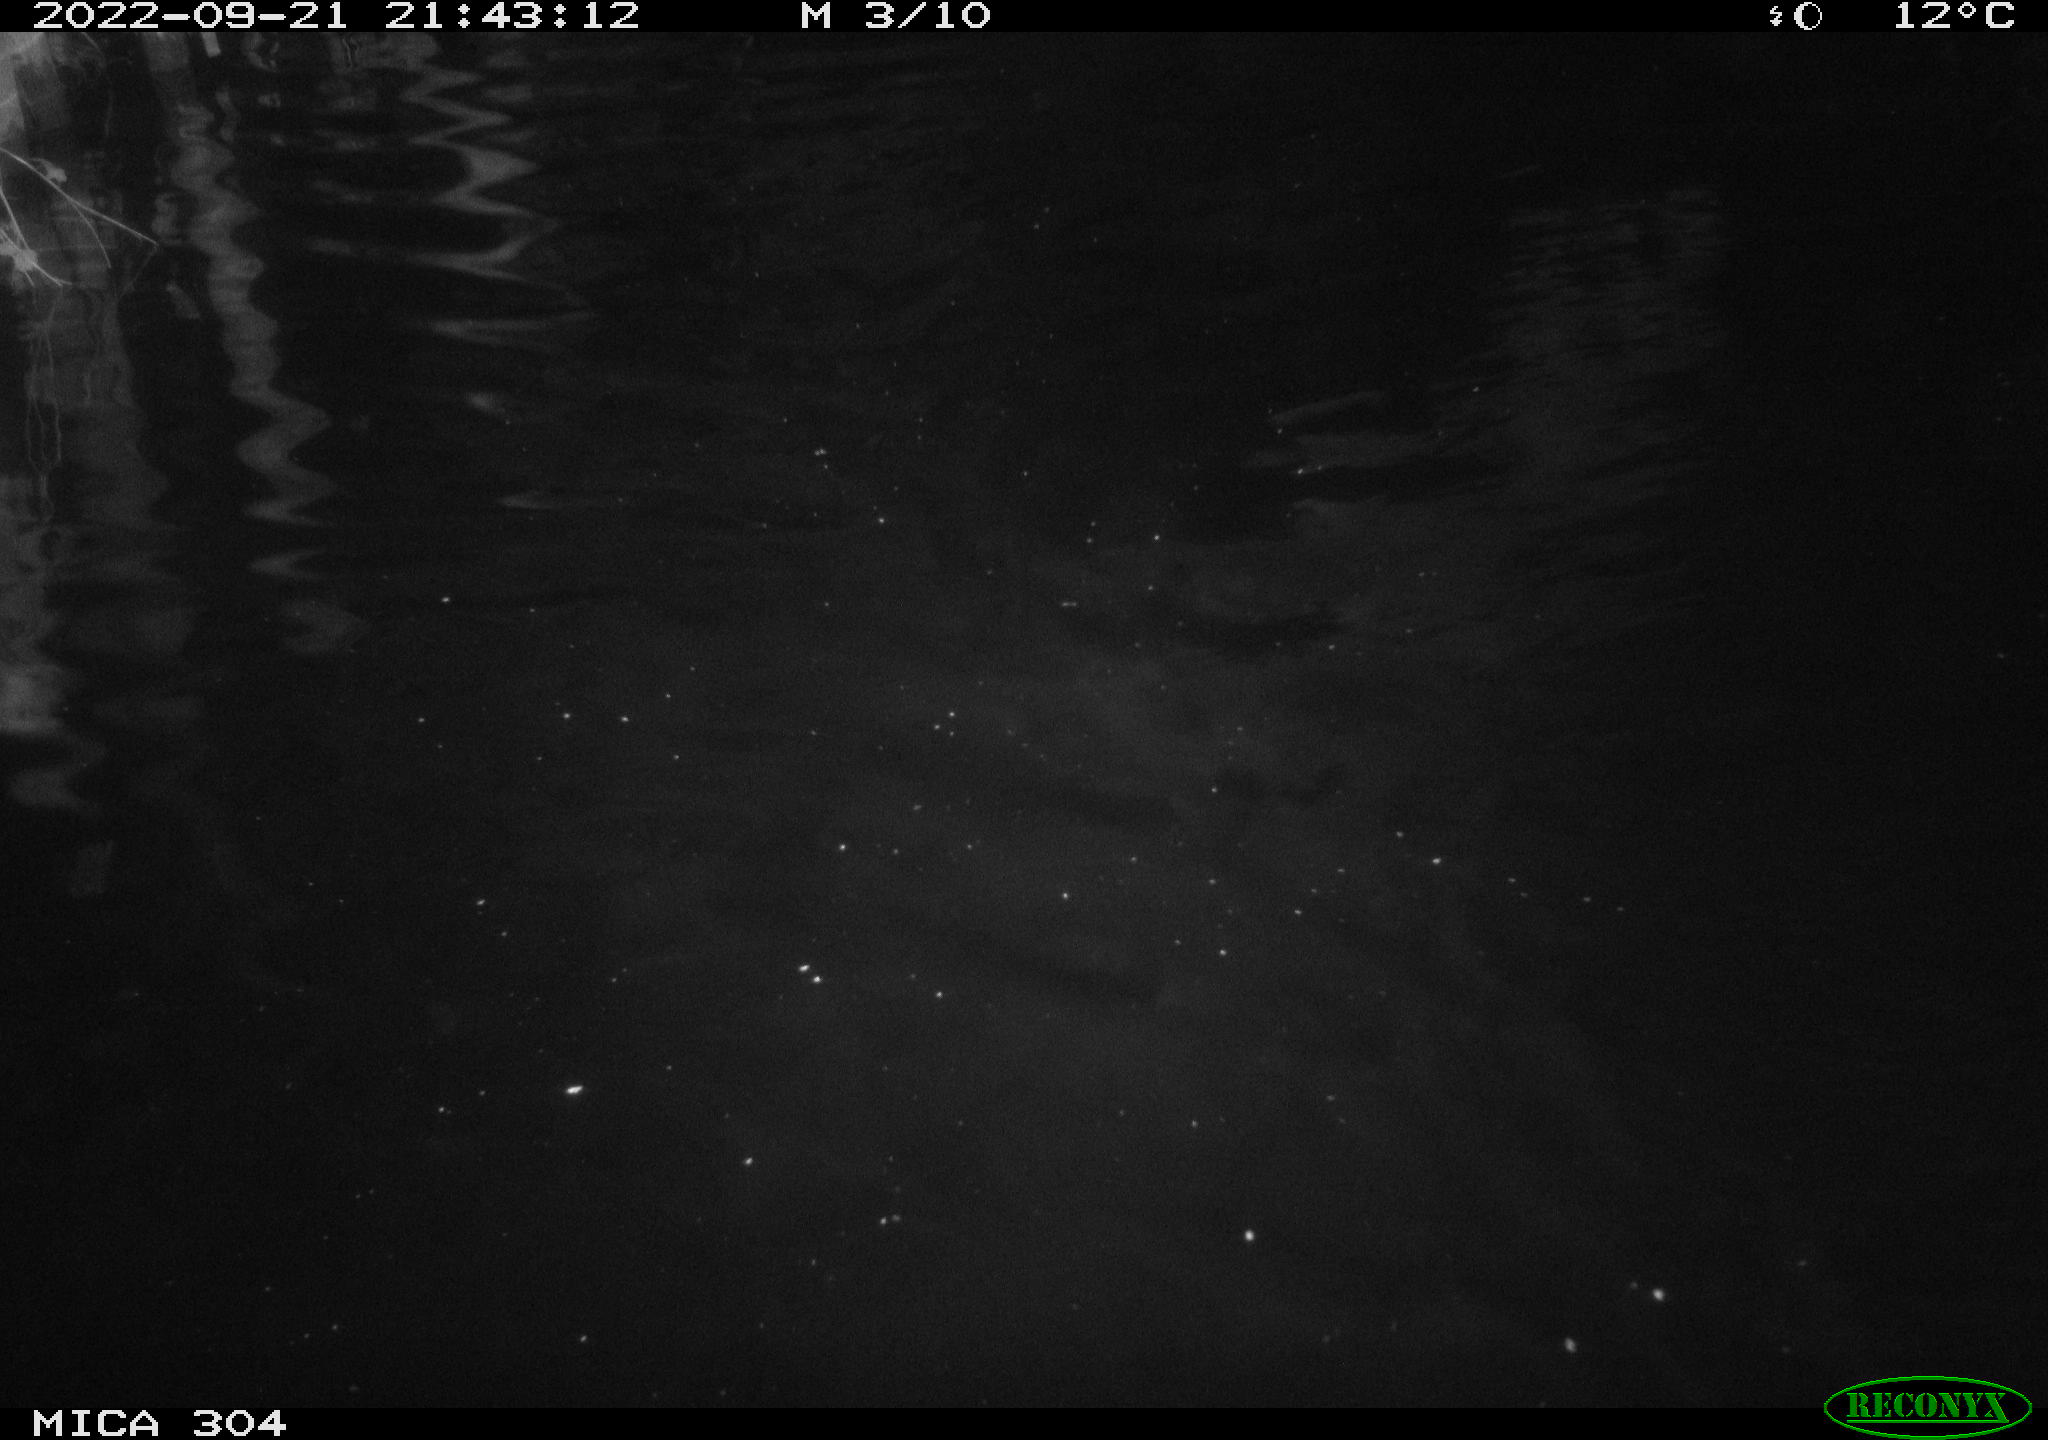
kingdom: Animalia
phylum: Chordata
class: Mammalia
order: Rodentia
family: Cricetidae
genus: Ondatra
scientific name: Ondatra zibethicus
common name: Muskrat
